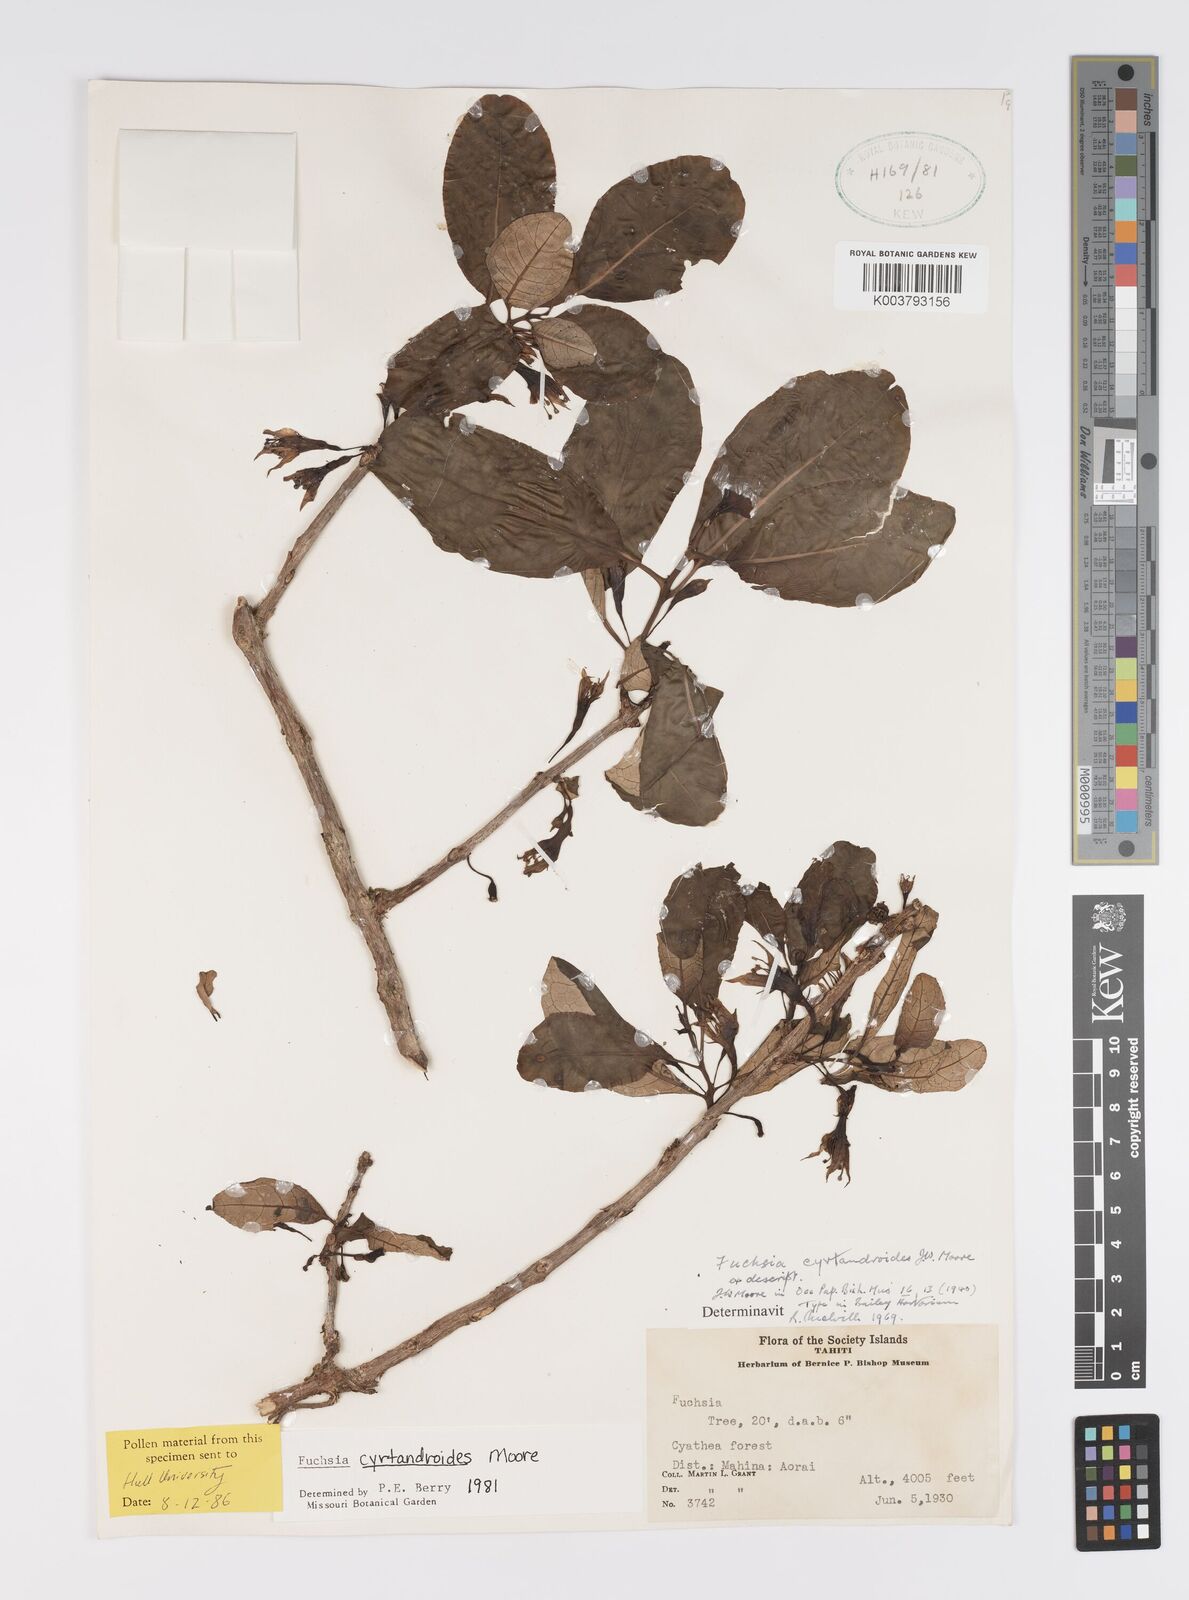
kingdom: Plantae
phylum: Tracheophyta
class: Magnoliopsida
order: Myrtales
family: Onagraceae
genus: Fuchsia
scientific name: Fuchsia cyrtandroides
